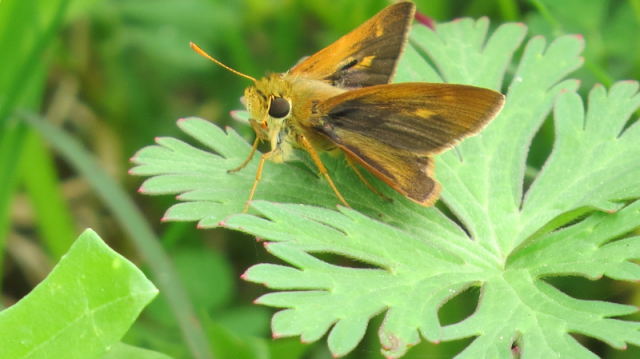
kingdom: Animalia
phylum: Arthropoda
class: Insecta
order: Lepidoptera
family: Hesperiidae
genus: Wallengrenia
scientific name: Wallengrenia otho
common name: Southern Broken-Dash
